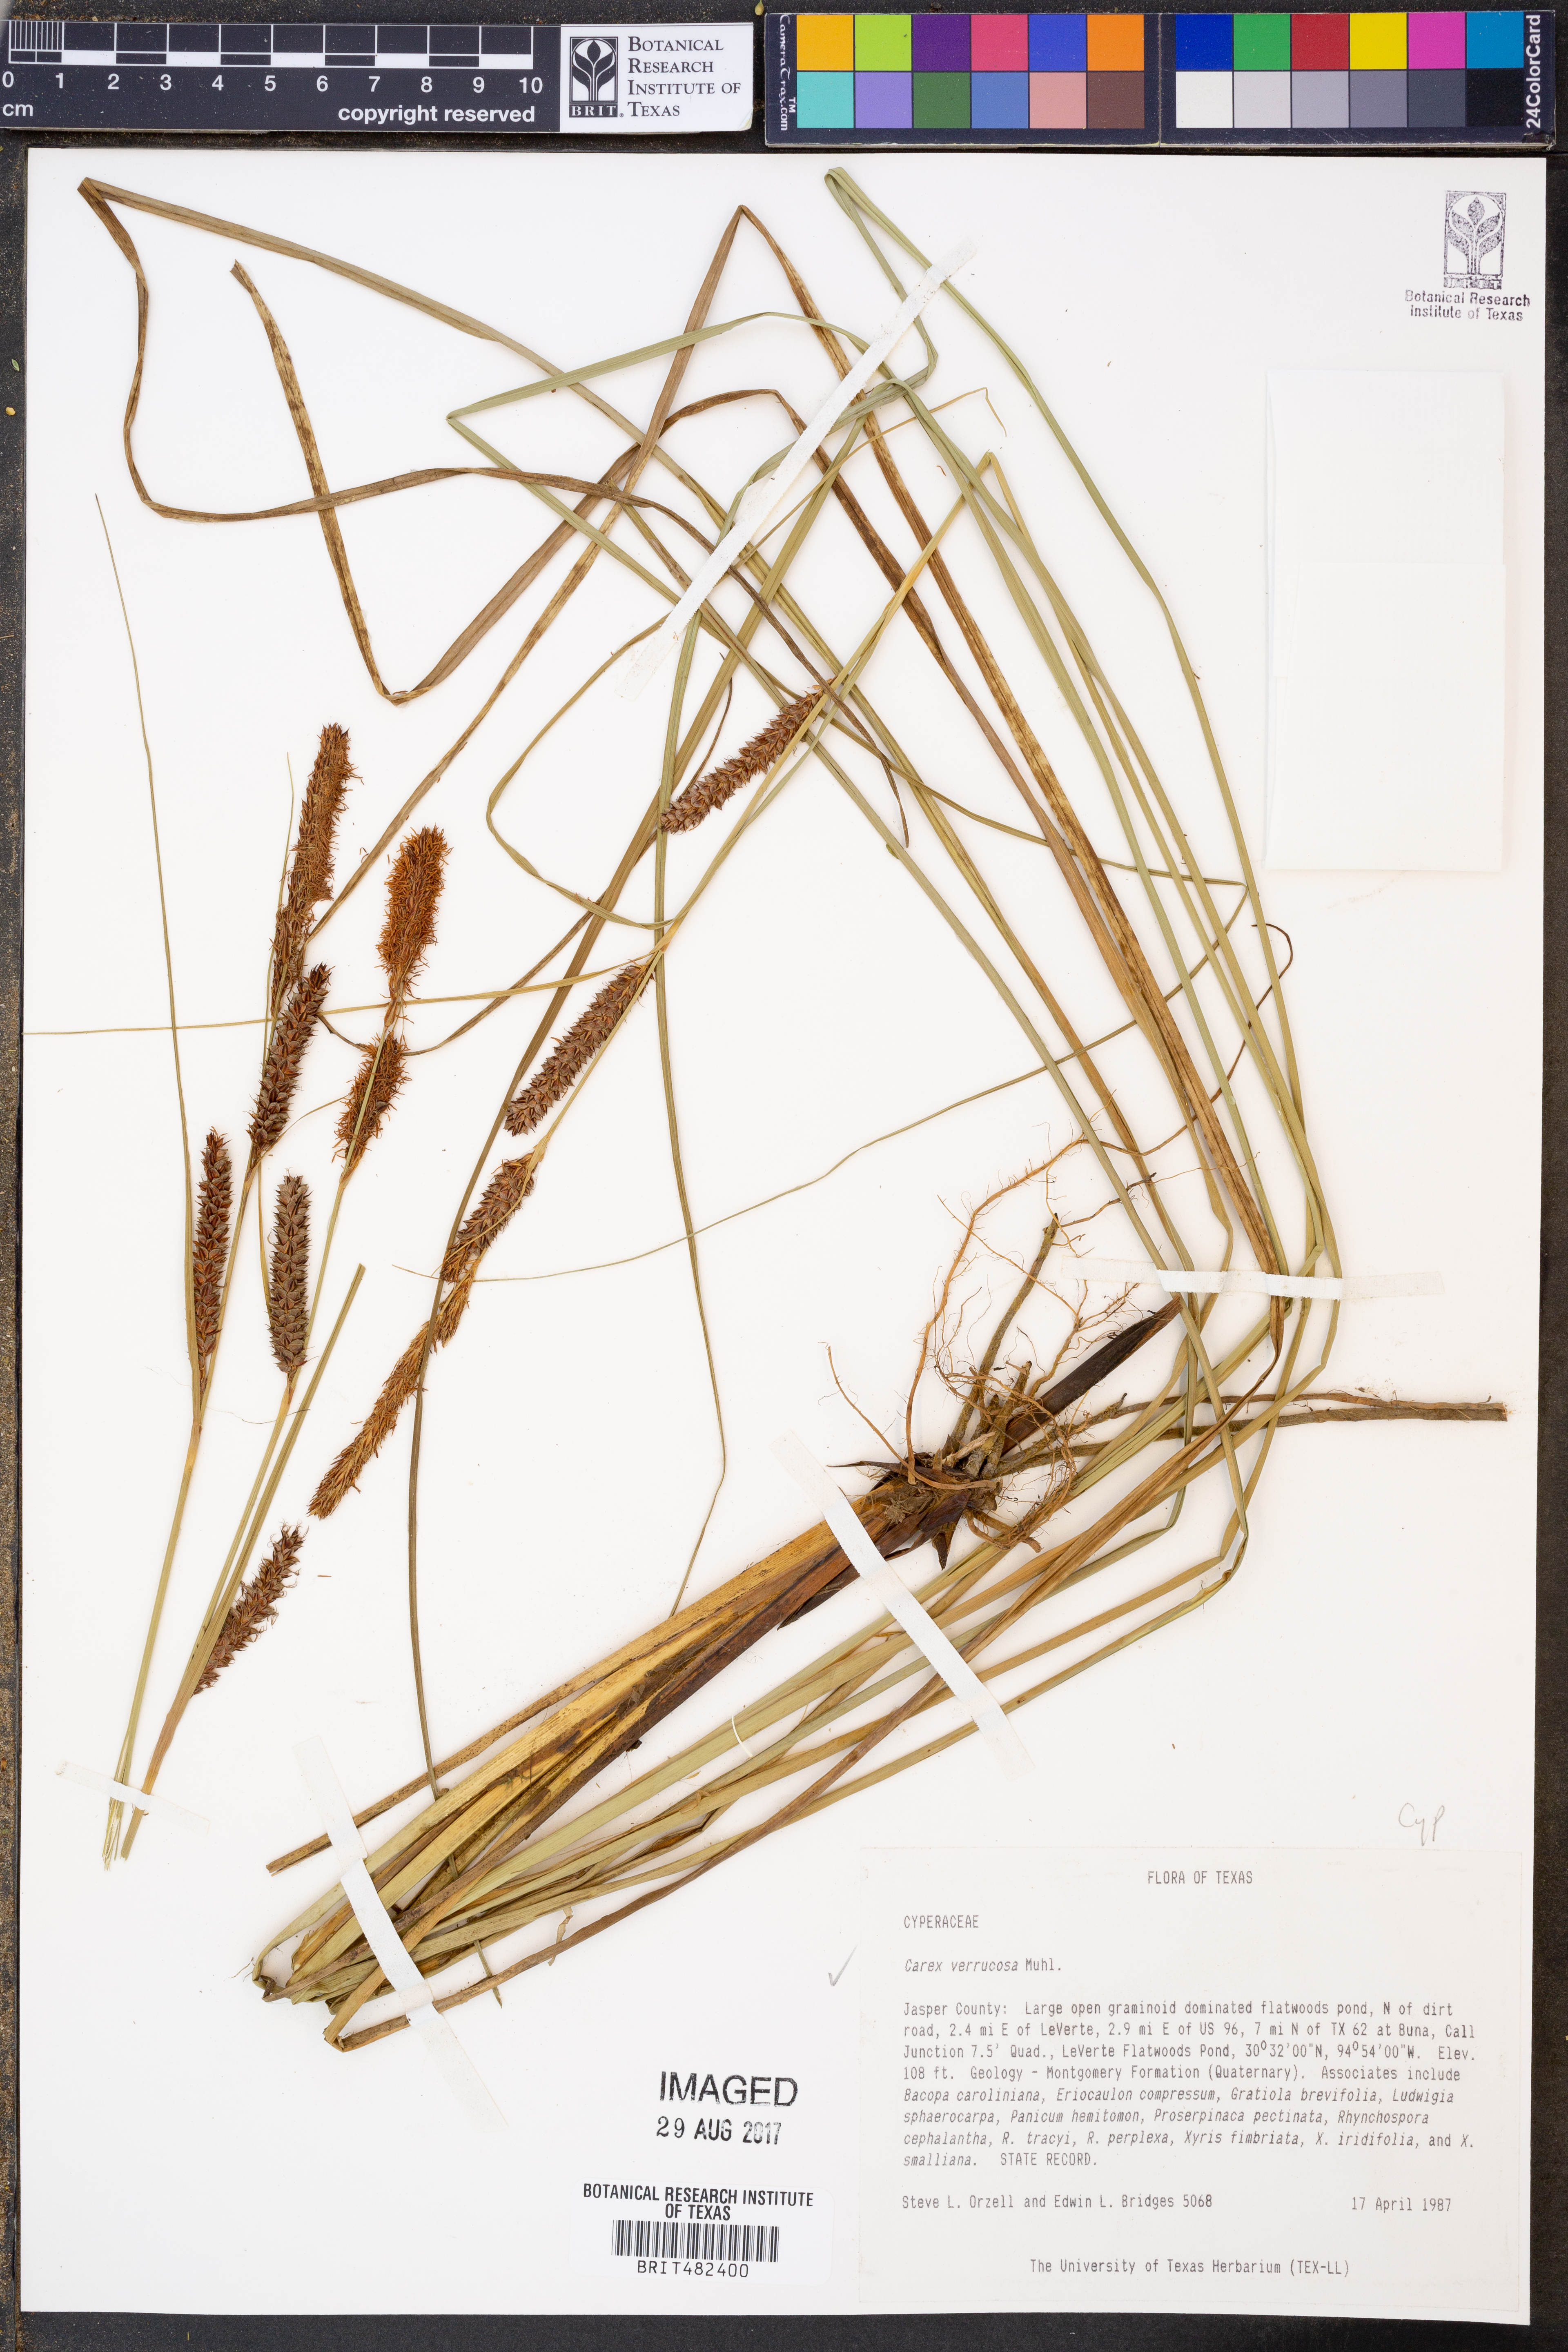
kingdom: Plantae
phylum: Tracheophyta
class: Liliopsida
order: Poales
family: Cyperaceae
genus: Carex
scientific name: Carex verrucosa
